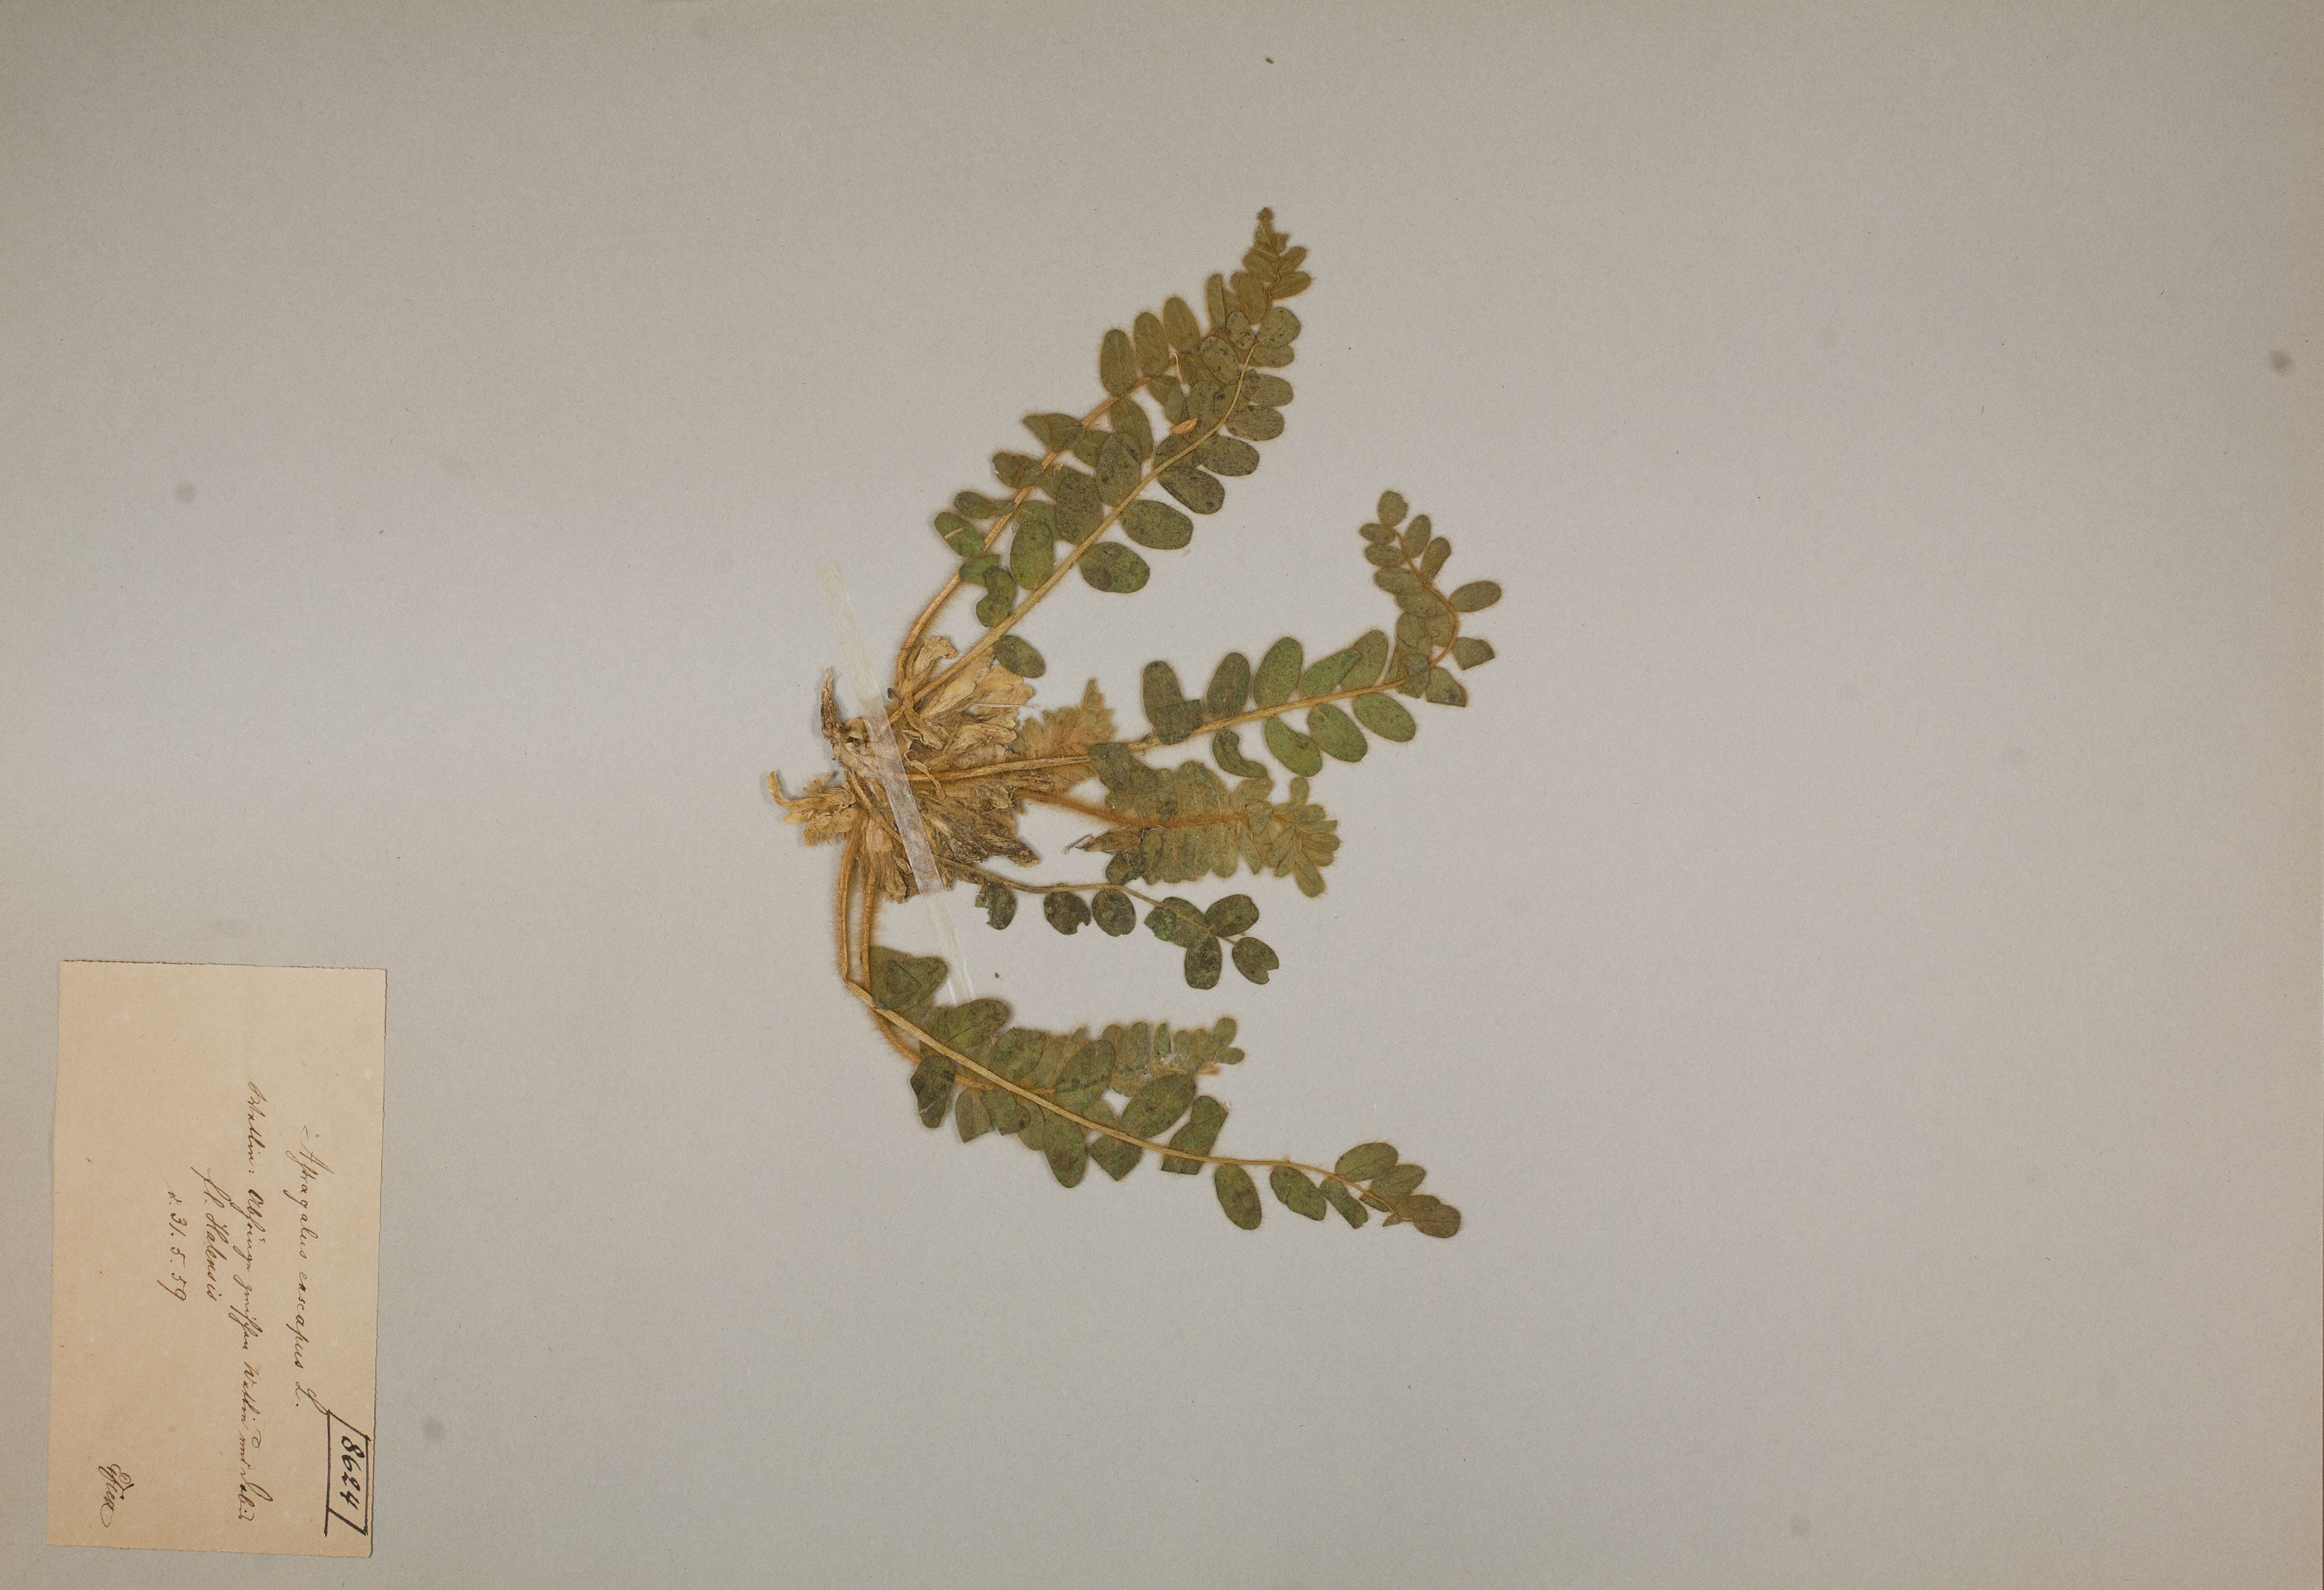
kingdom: Plantae
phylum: Tracheophyta
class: Magnoliopsida
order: Fabales
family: Fabaceae
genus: Astragalus
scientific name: Astragalus exscapus
